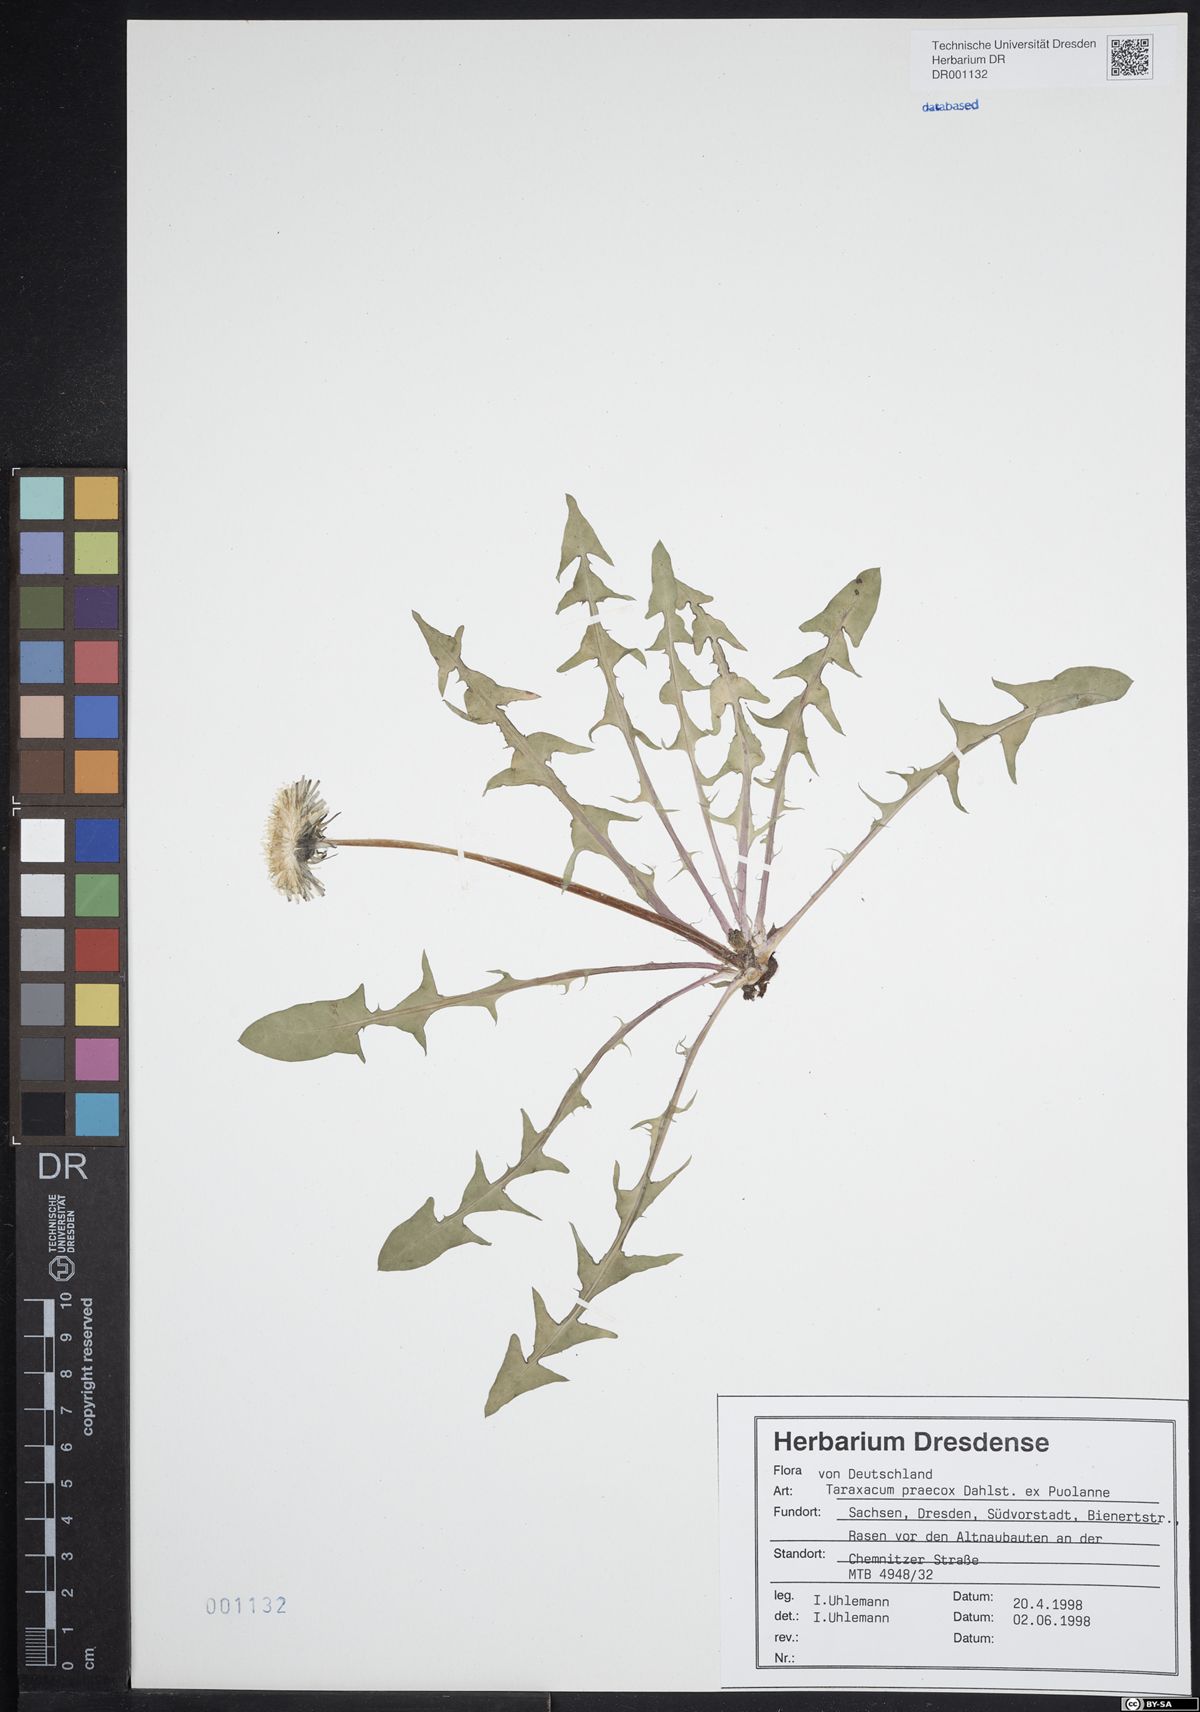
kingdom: Plantae
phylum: Tracheophyta
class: Magnoliopsida
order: Asterales
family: Asteraceae
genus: Taraxacum
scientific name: Taraxacum praecox
